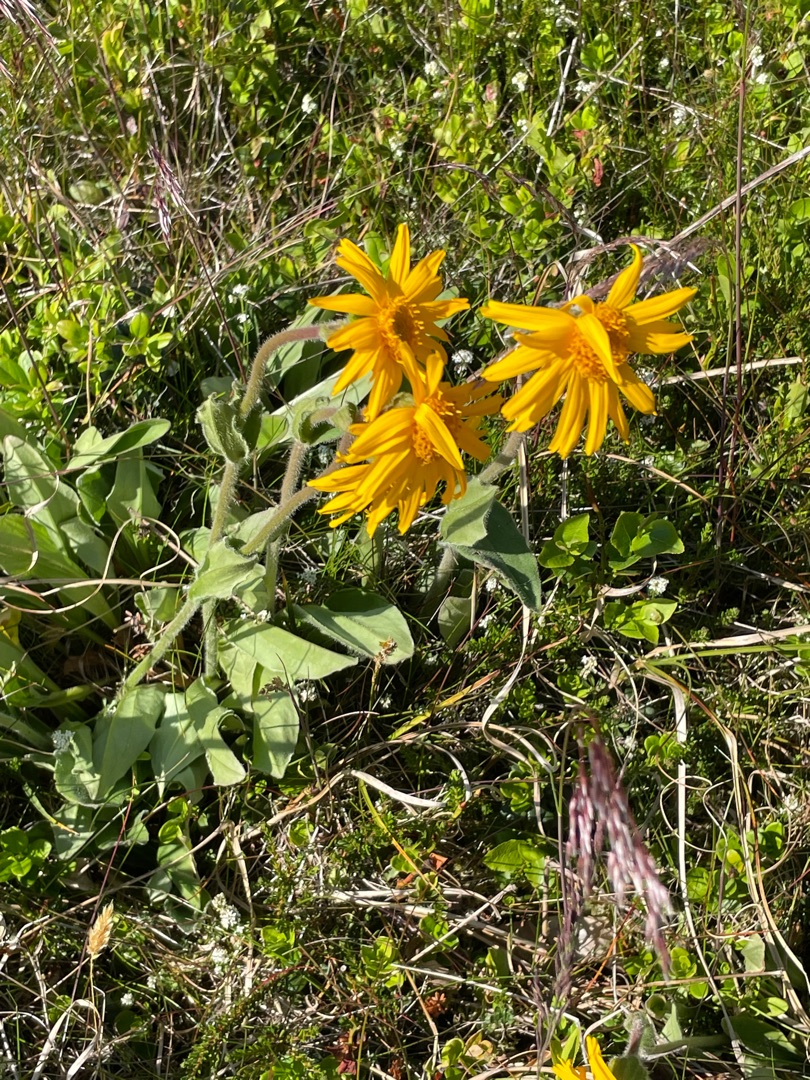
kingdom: Plantae
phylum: Tracheophyta
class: Magnoliopsida
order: Asterales
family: Asteraceae
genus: Arnica
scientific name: Arnica montana
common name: Guldblomme
